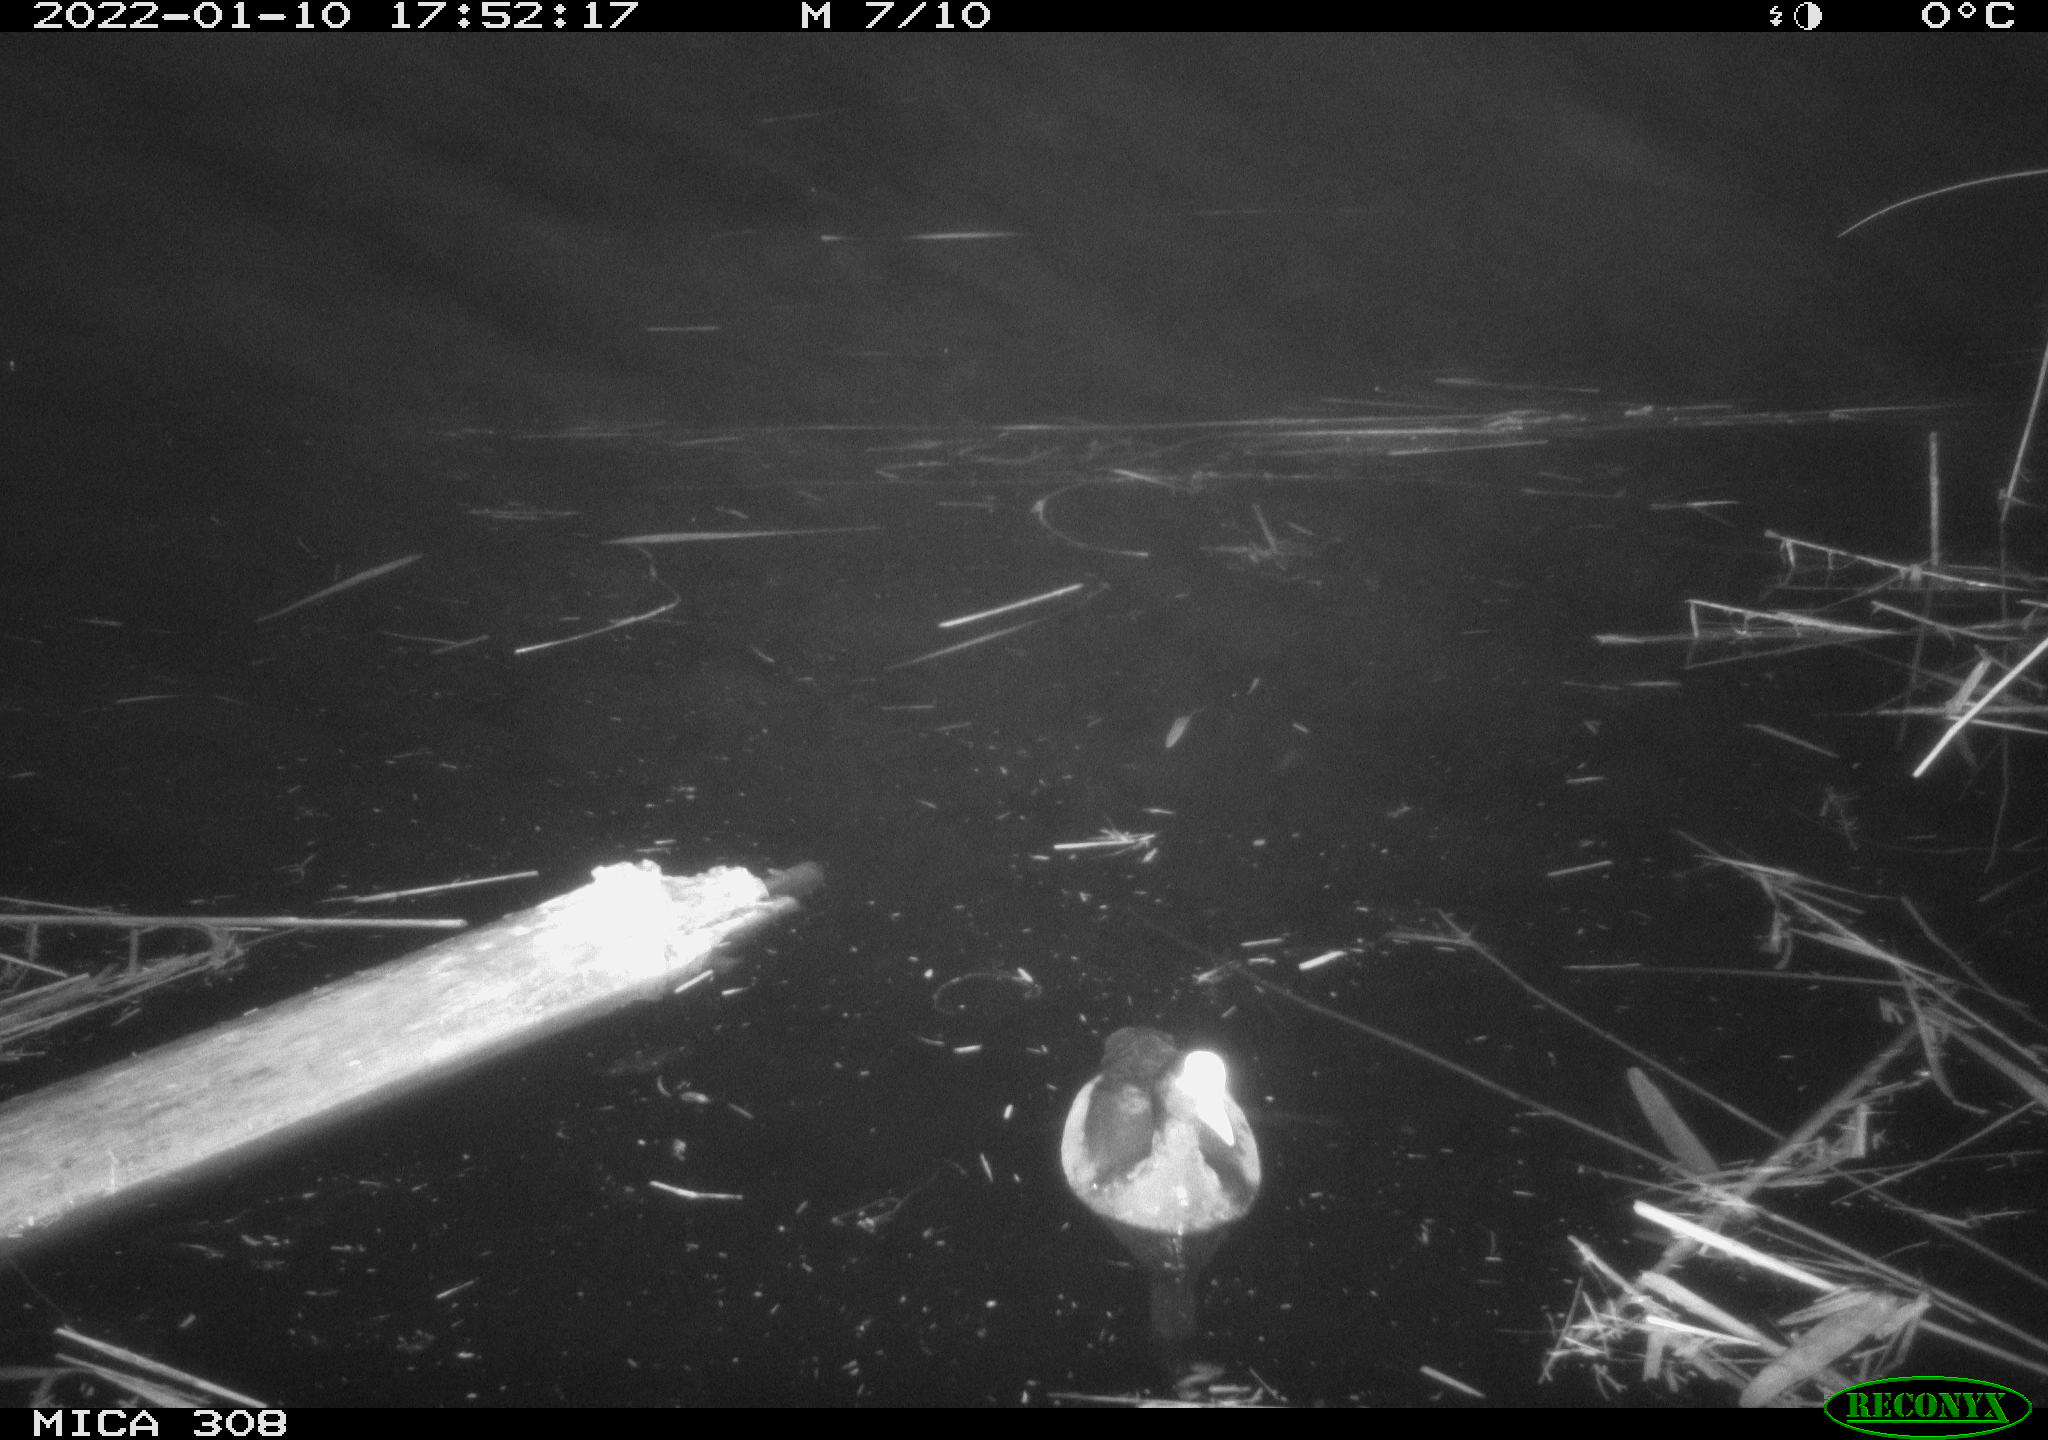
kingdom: Animalia
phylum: Chordata
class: Aves
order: Gruiformes
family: Rallidae
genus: Fulica
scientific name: Fulica atra
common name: Eurasian coot
